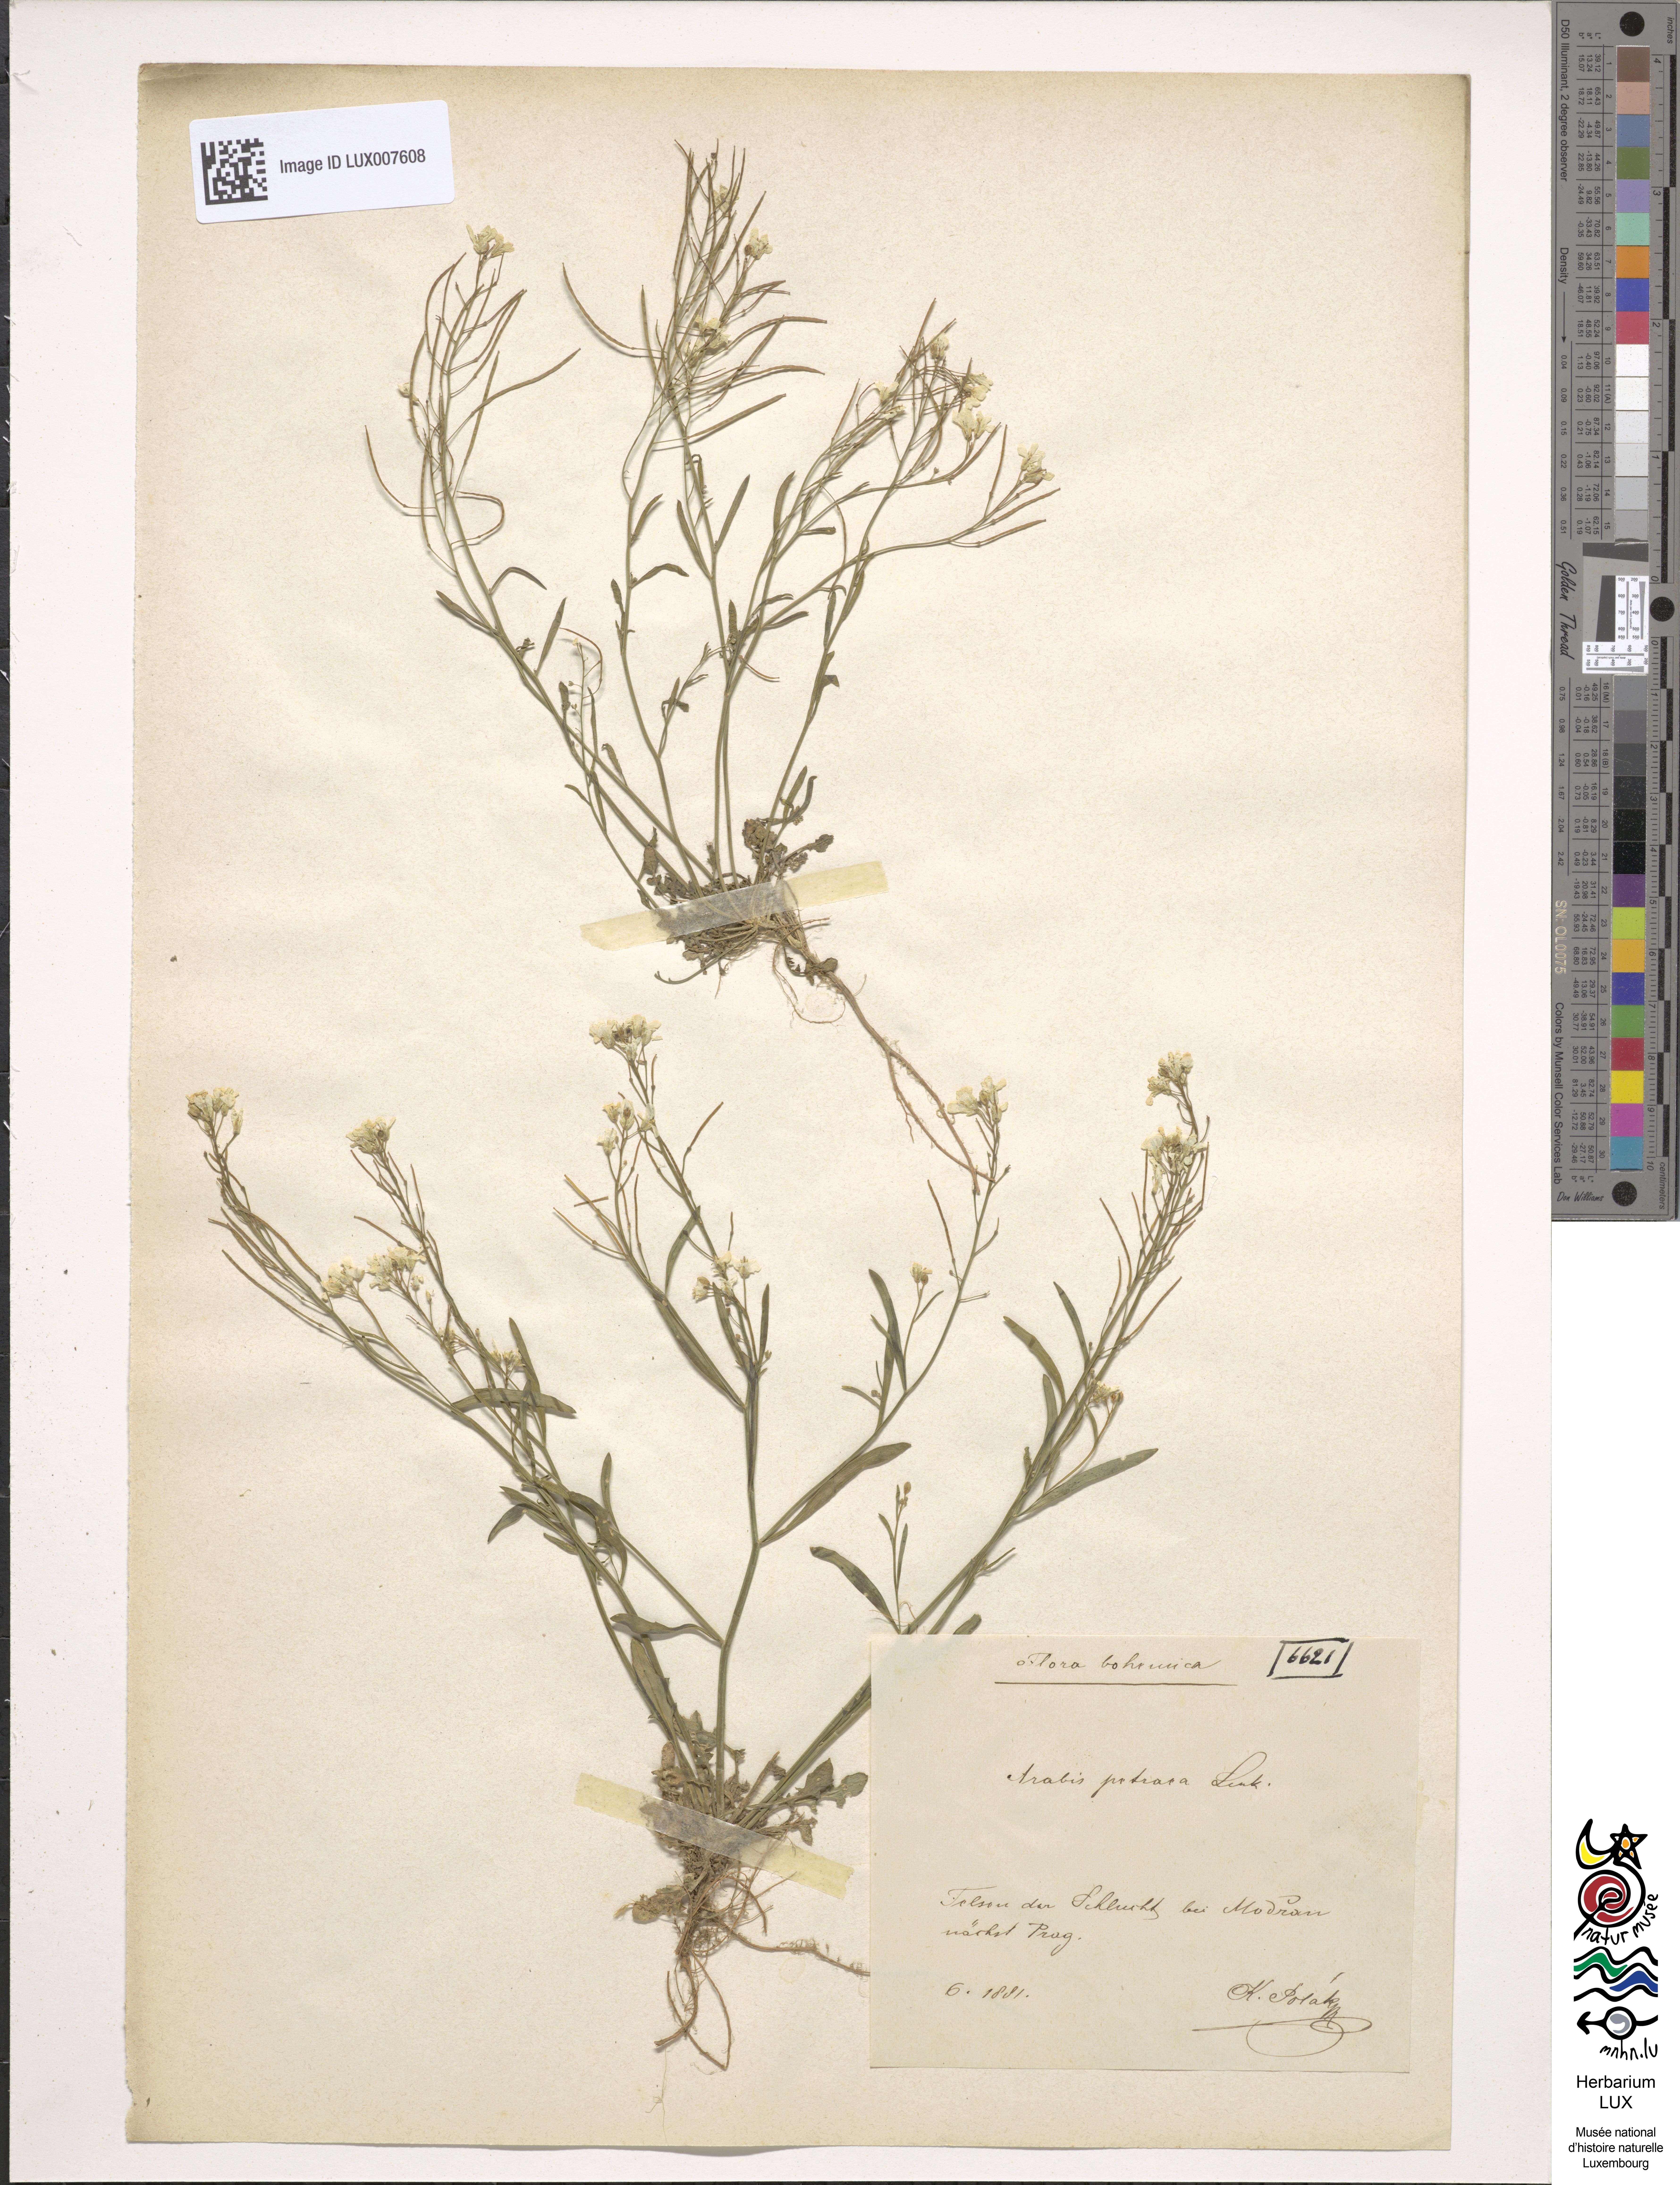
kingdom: Plantae
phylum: Tracheophyta
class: Magnoliopsida
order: Brassicales
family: Brassicaceae
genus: Arabidopsis
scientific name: Arabidopsis lyrata
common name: Lyrate rockcress
